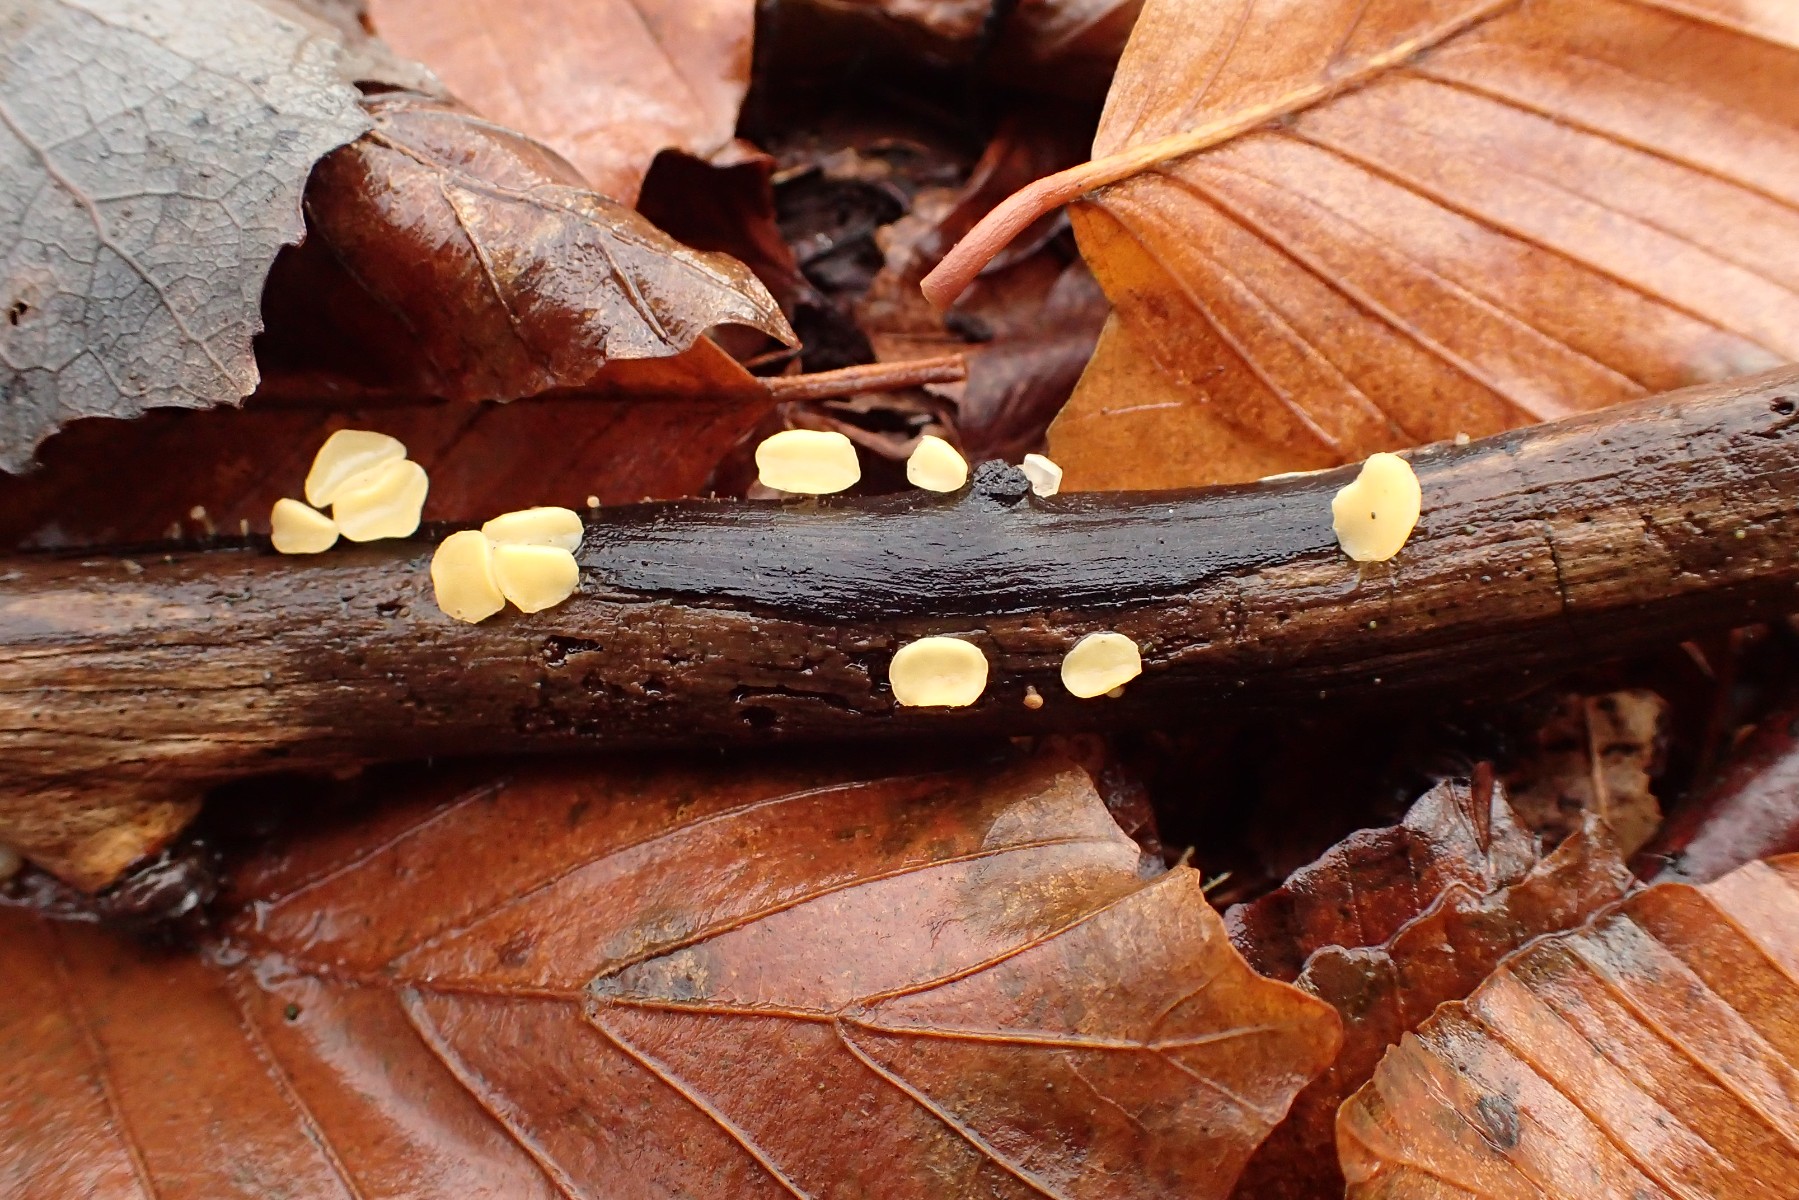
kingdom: Fungi
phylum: Ascomycota
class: Leotiomycetes
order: Helotiales
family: Helotiaceae
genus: Hymenoscyphus
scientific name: Hymenoscyphus serotinus
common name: krumsporet stilkskive
